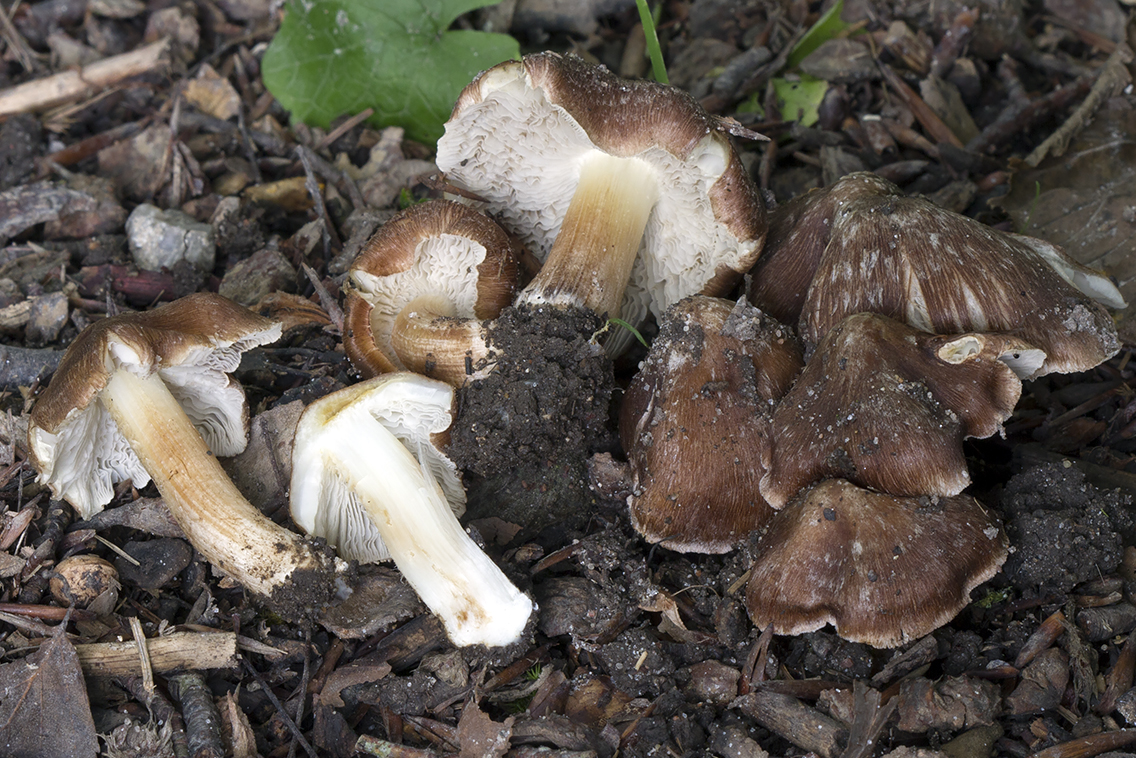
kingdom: Fungi
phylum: Basidiomycota
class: Agaricomycetes
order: Agaricales
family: Inocybaceae
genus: Inosperma
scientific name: Inosperma
